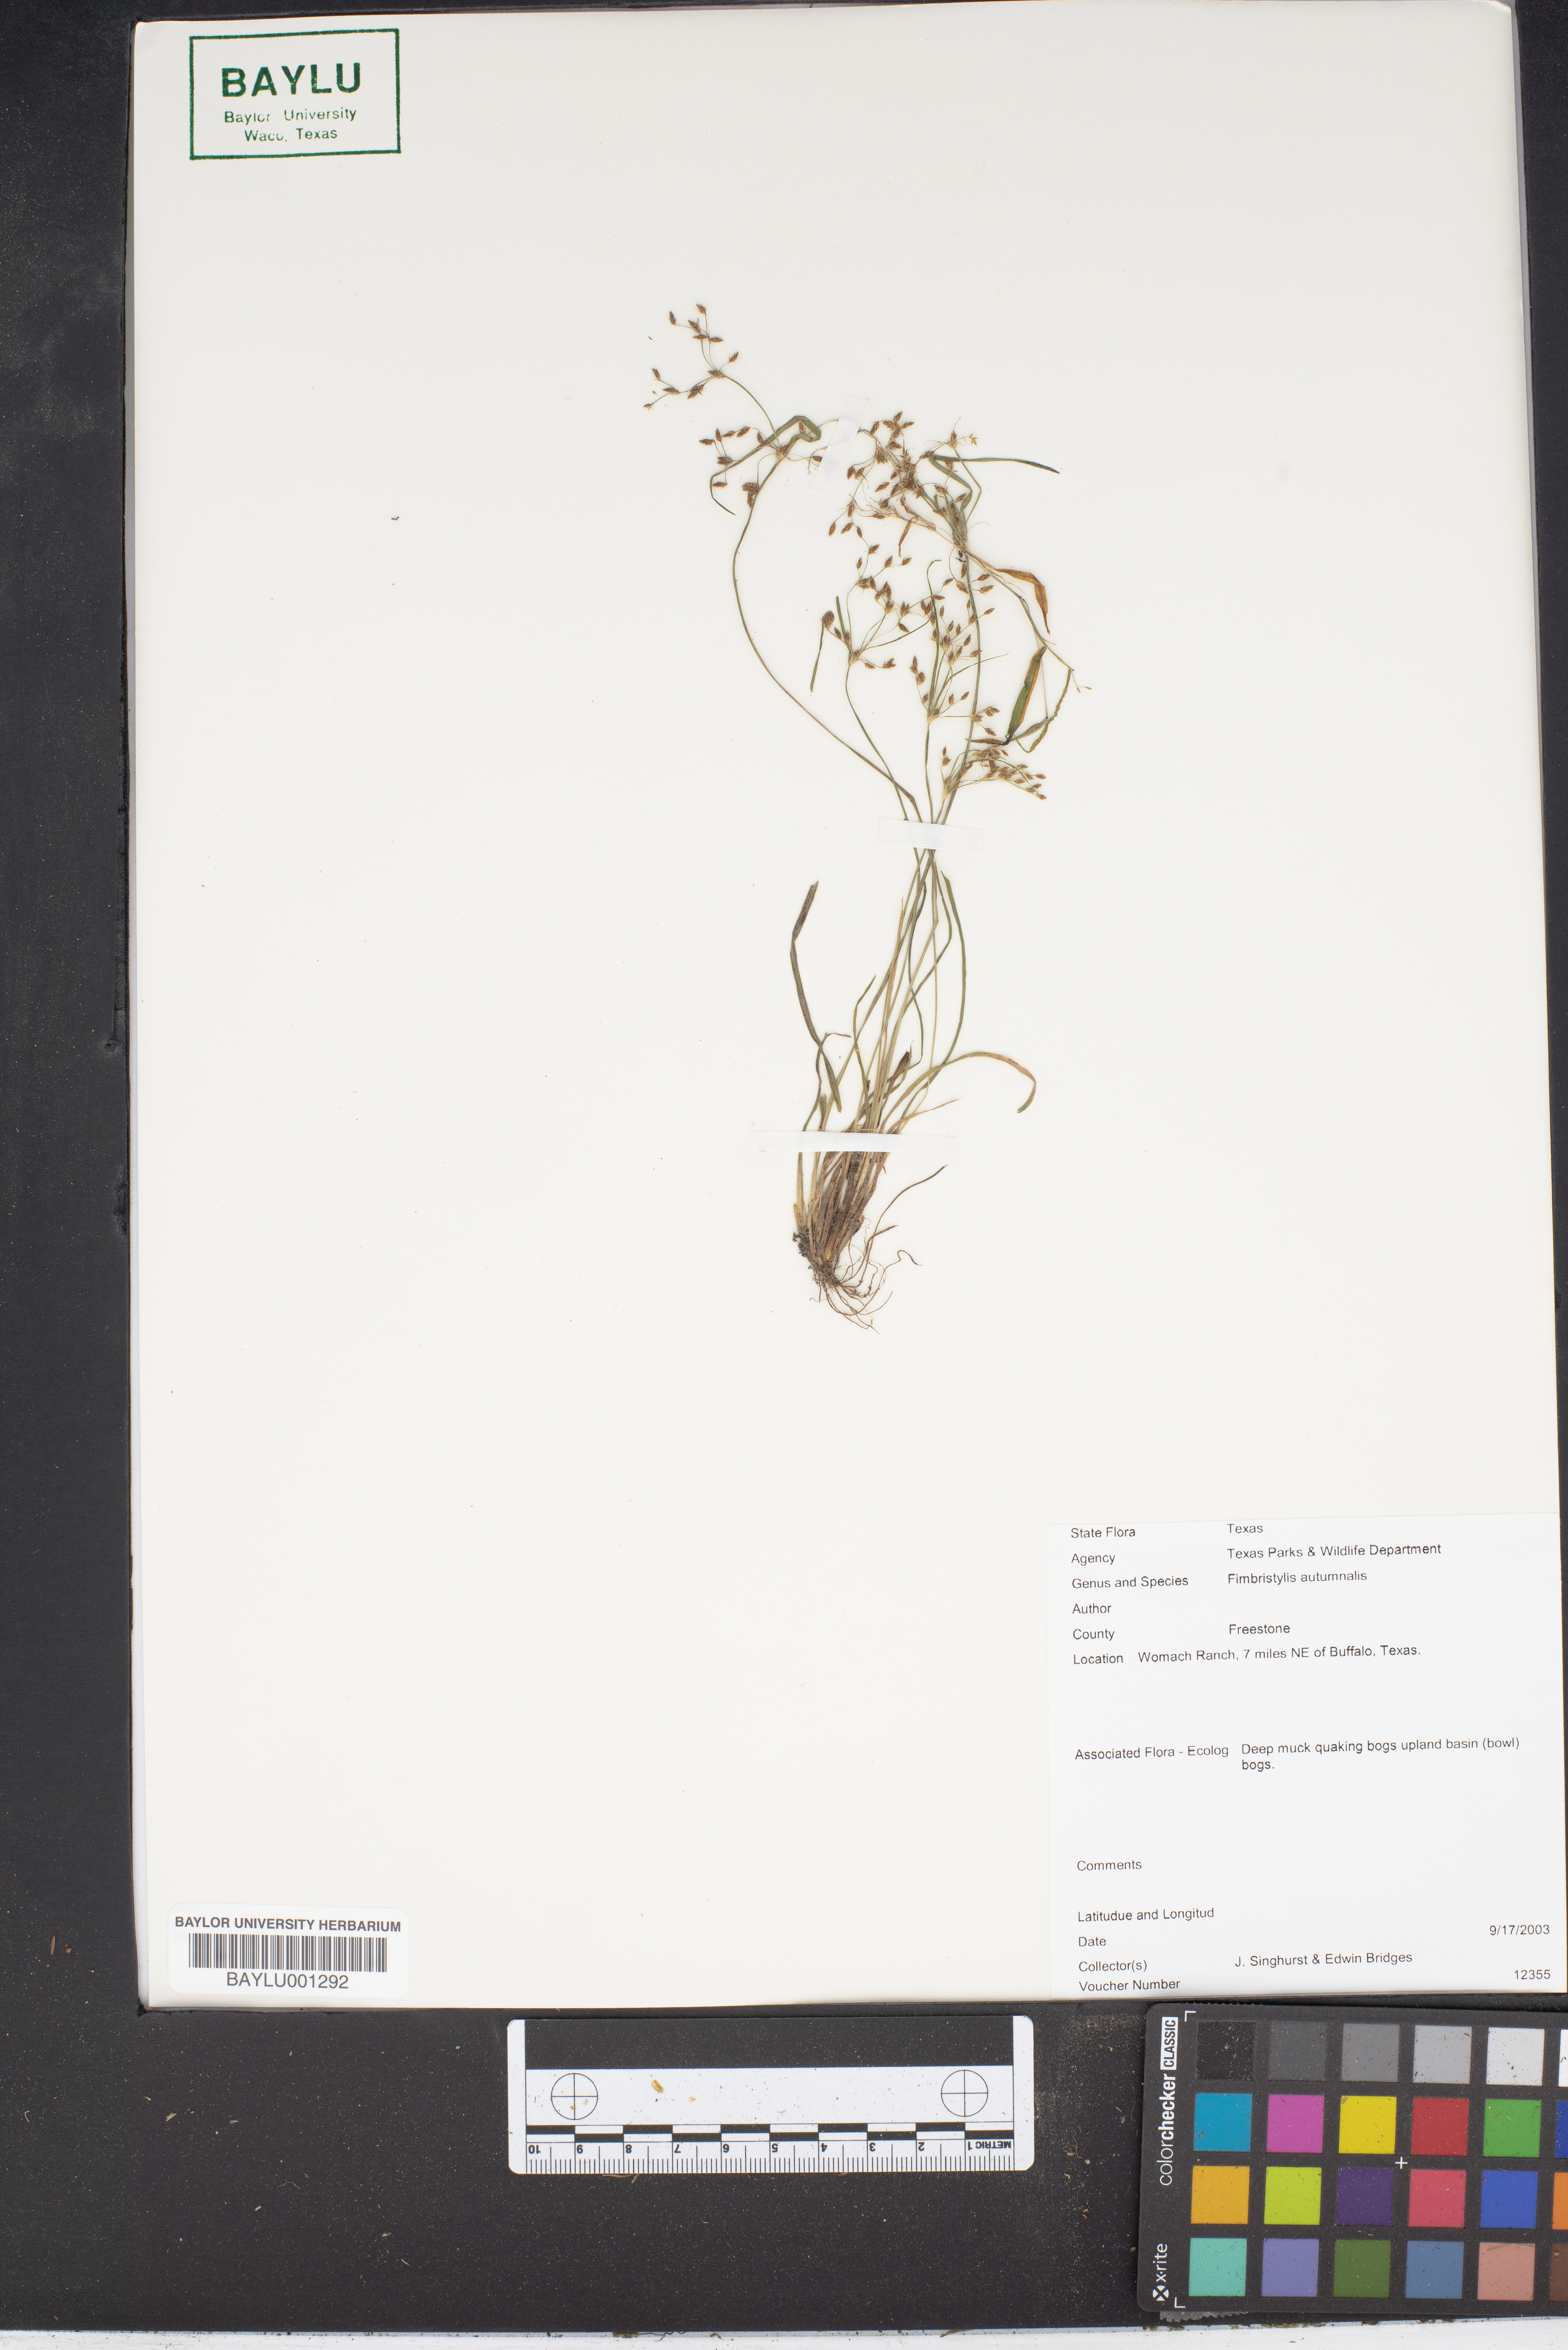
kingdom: Plantae
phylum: Tracheophyta
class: Liliopsida
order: Poales
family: Cyperaceae
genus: Fimbristylis
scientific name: Fimbristylis autumnalis
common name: Slender fimbristylis
